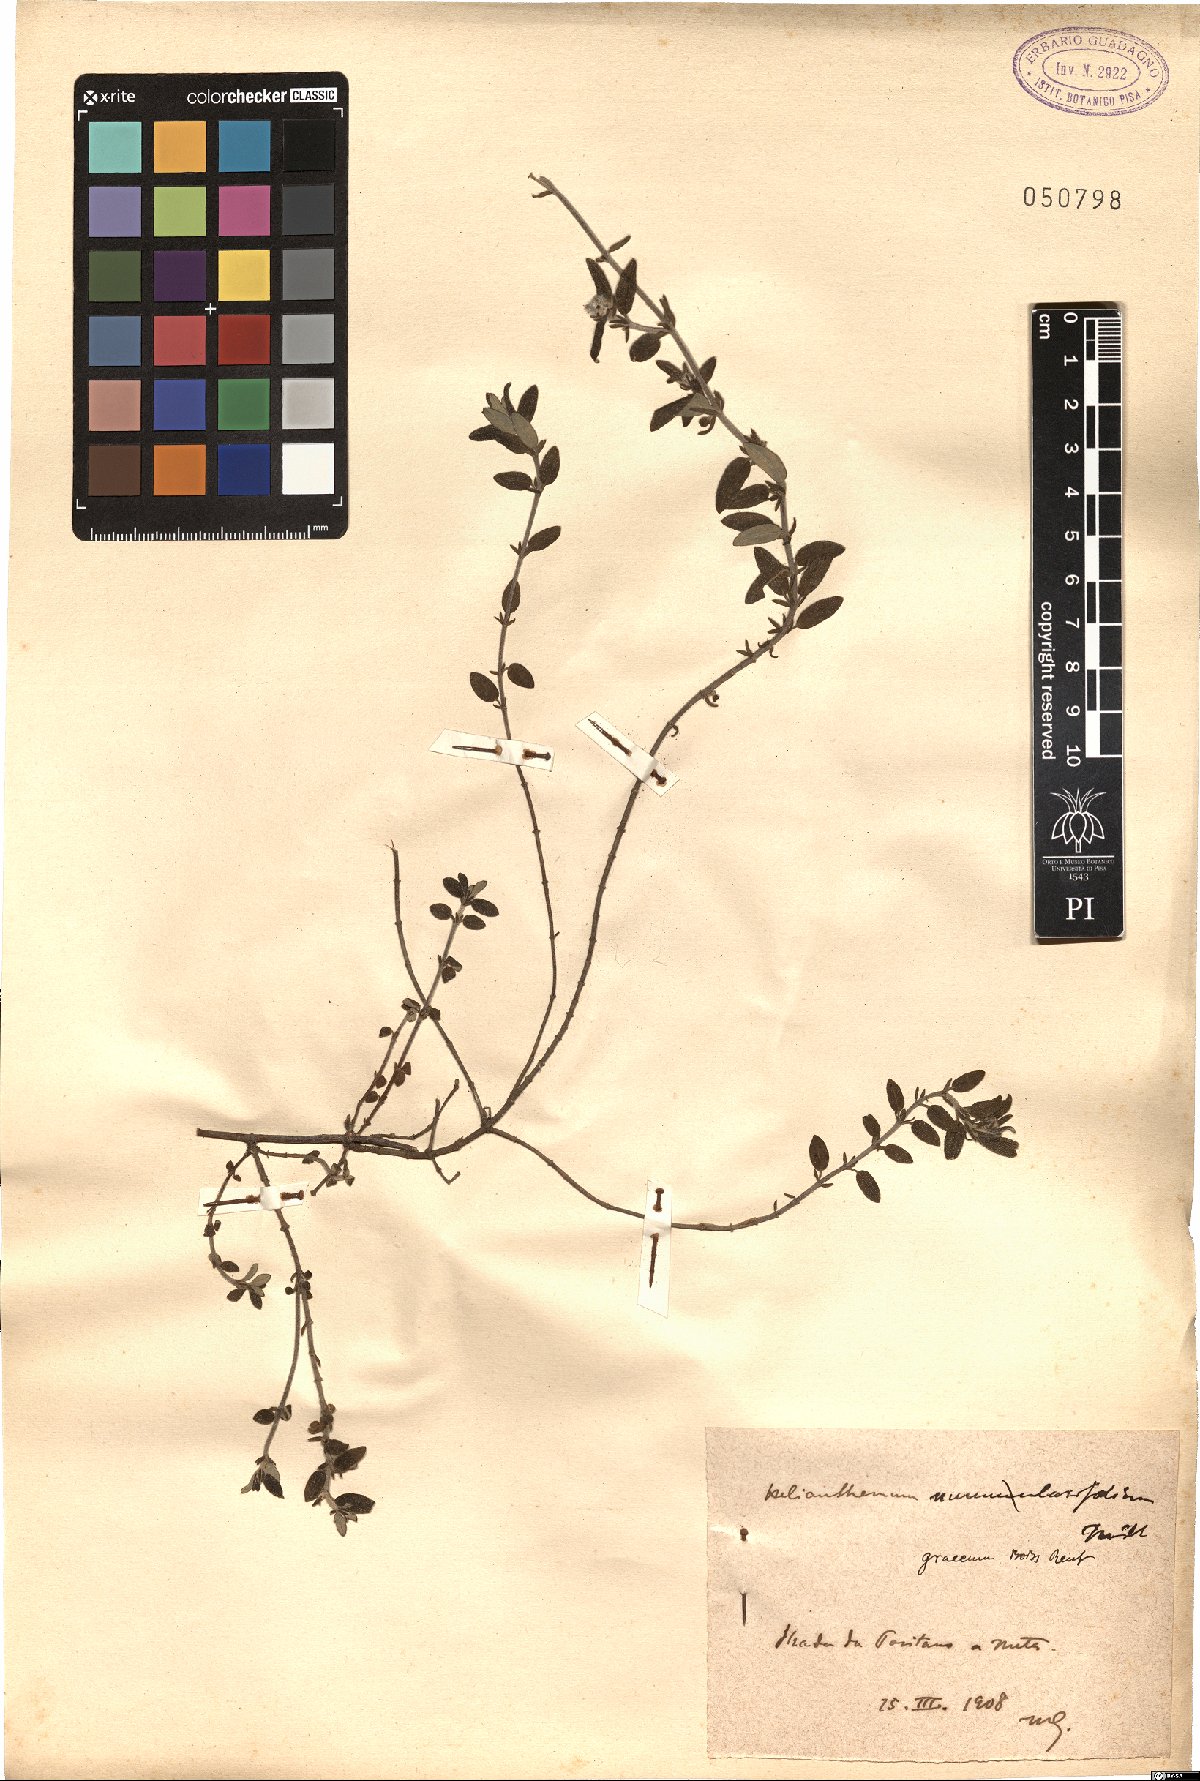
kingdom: Plantae
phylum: Tracheophyta
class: Magnoliopsida
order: Malvales
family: Cistaceae
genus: Helianthemum
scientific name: Helianthemum nummularium
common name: Common rock-rose
